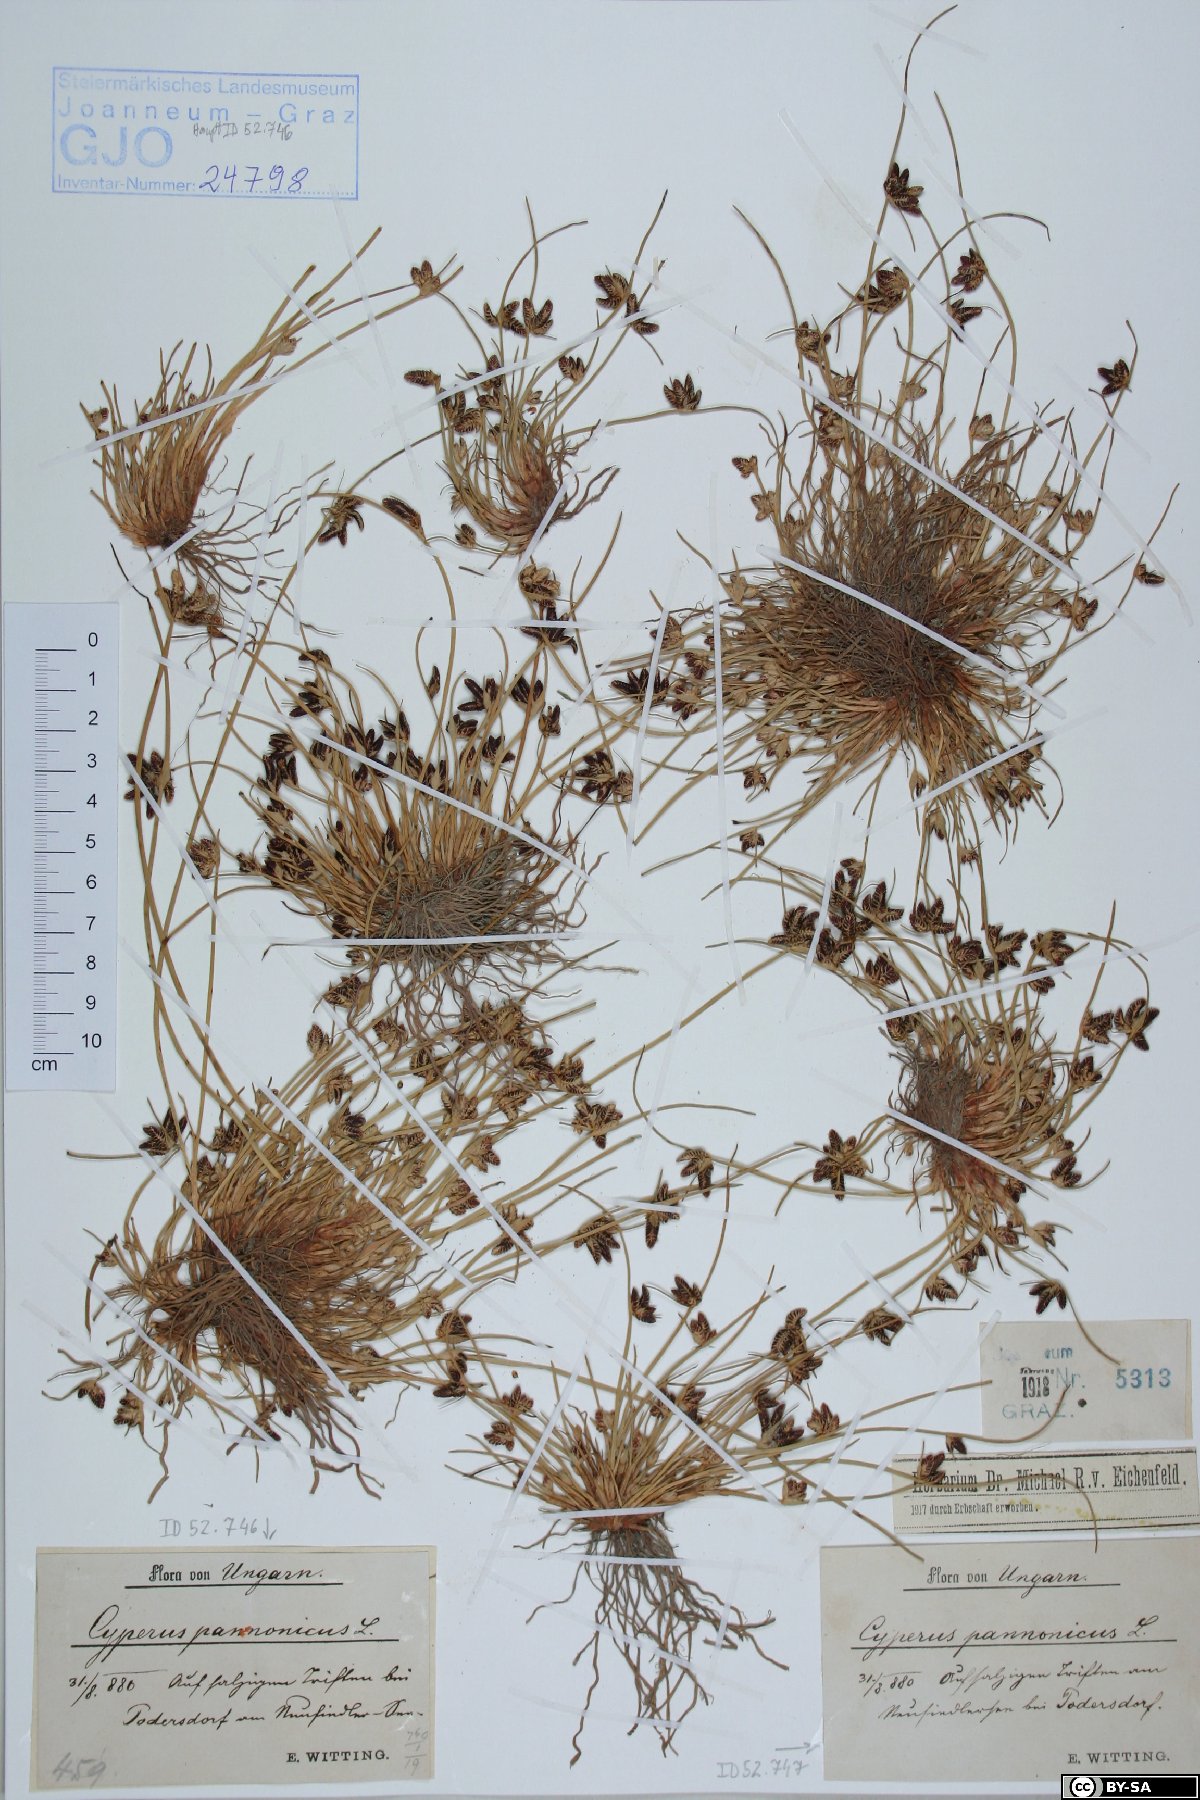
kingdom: Plantae
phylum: Tracheophyta
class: Liliopsida
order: Poales
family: Cyperaceae
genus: Cyperus
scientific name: Cyperus pannonicus
